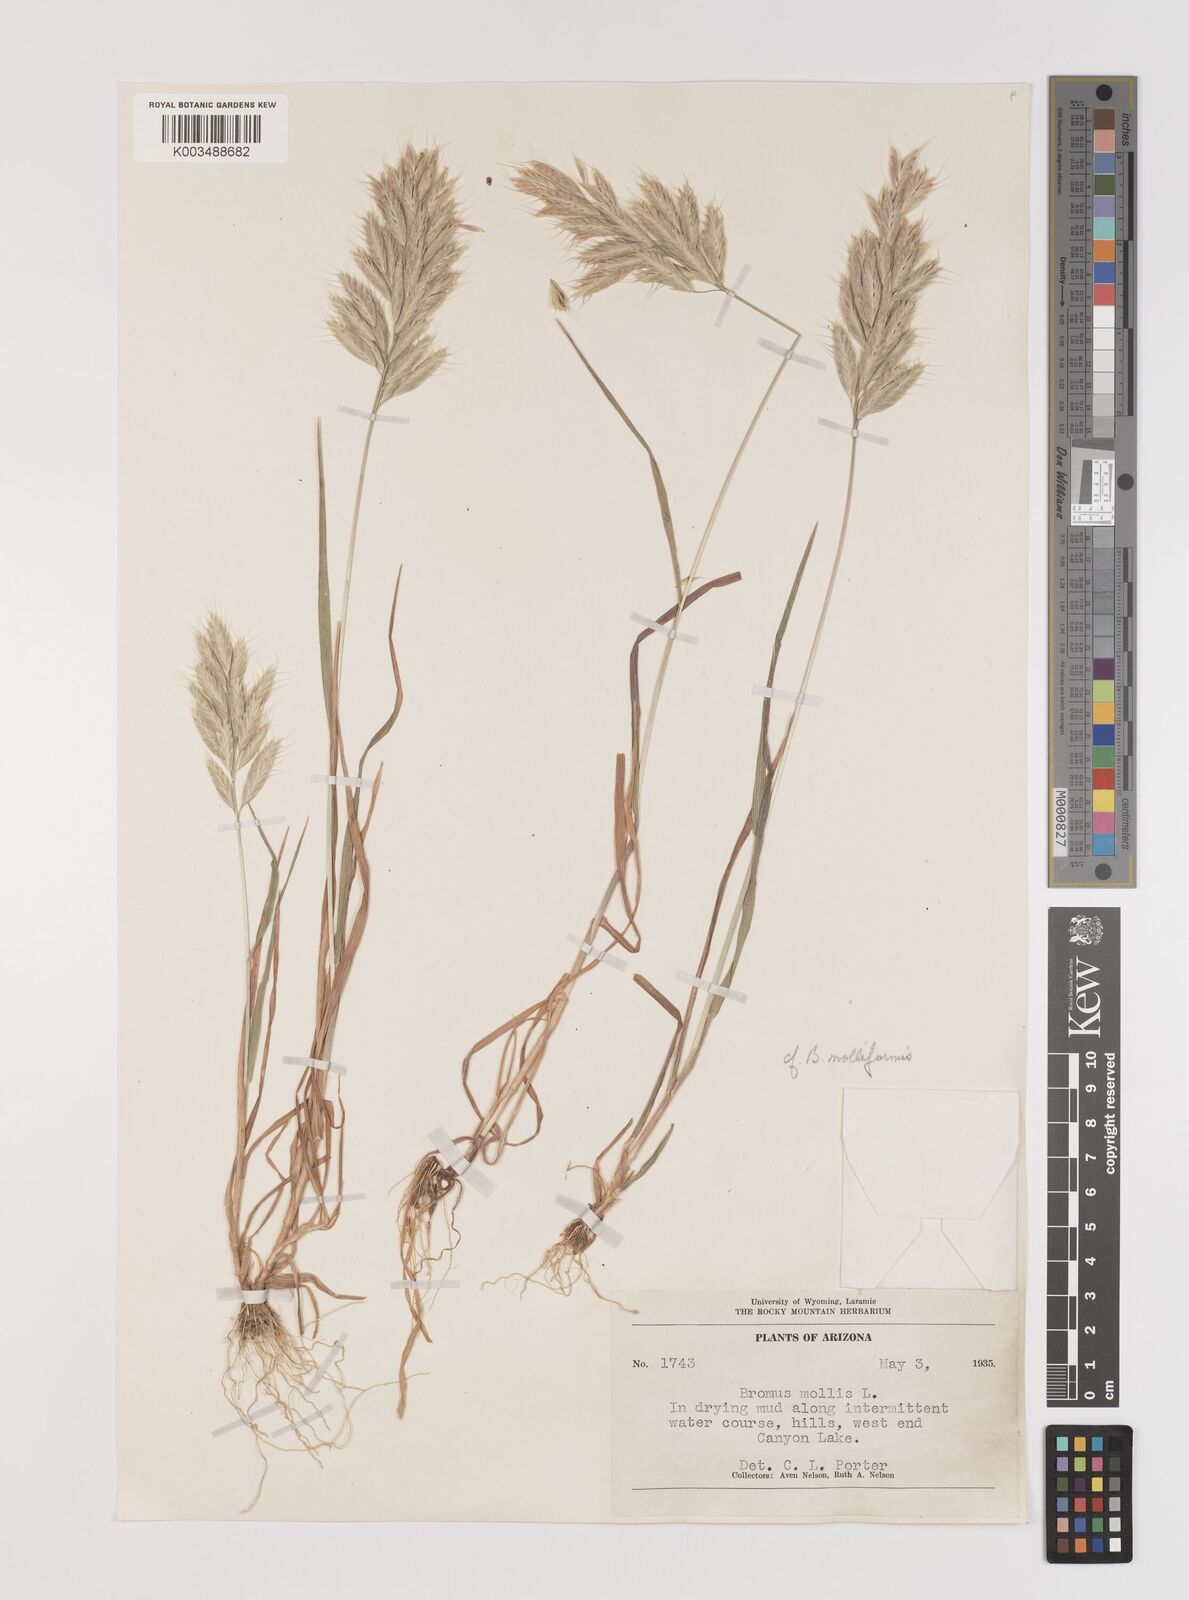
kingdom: Plantae
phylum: Tracheophyta
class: Liliopsida
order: Poales
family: Poaceae
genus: Bromus
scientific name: Bromus hordeaceus
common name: Soft brome
